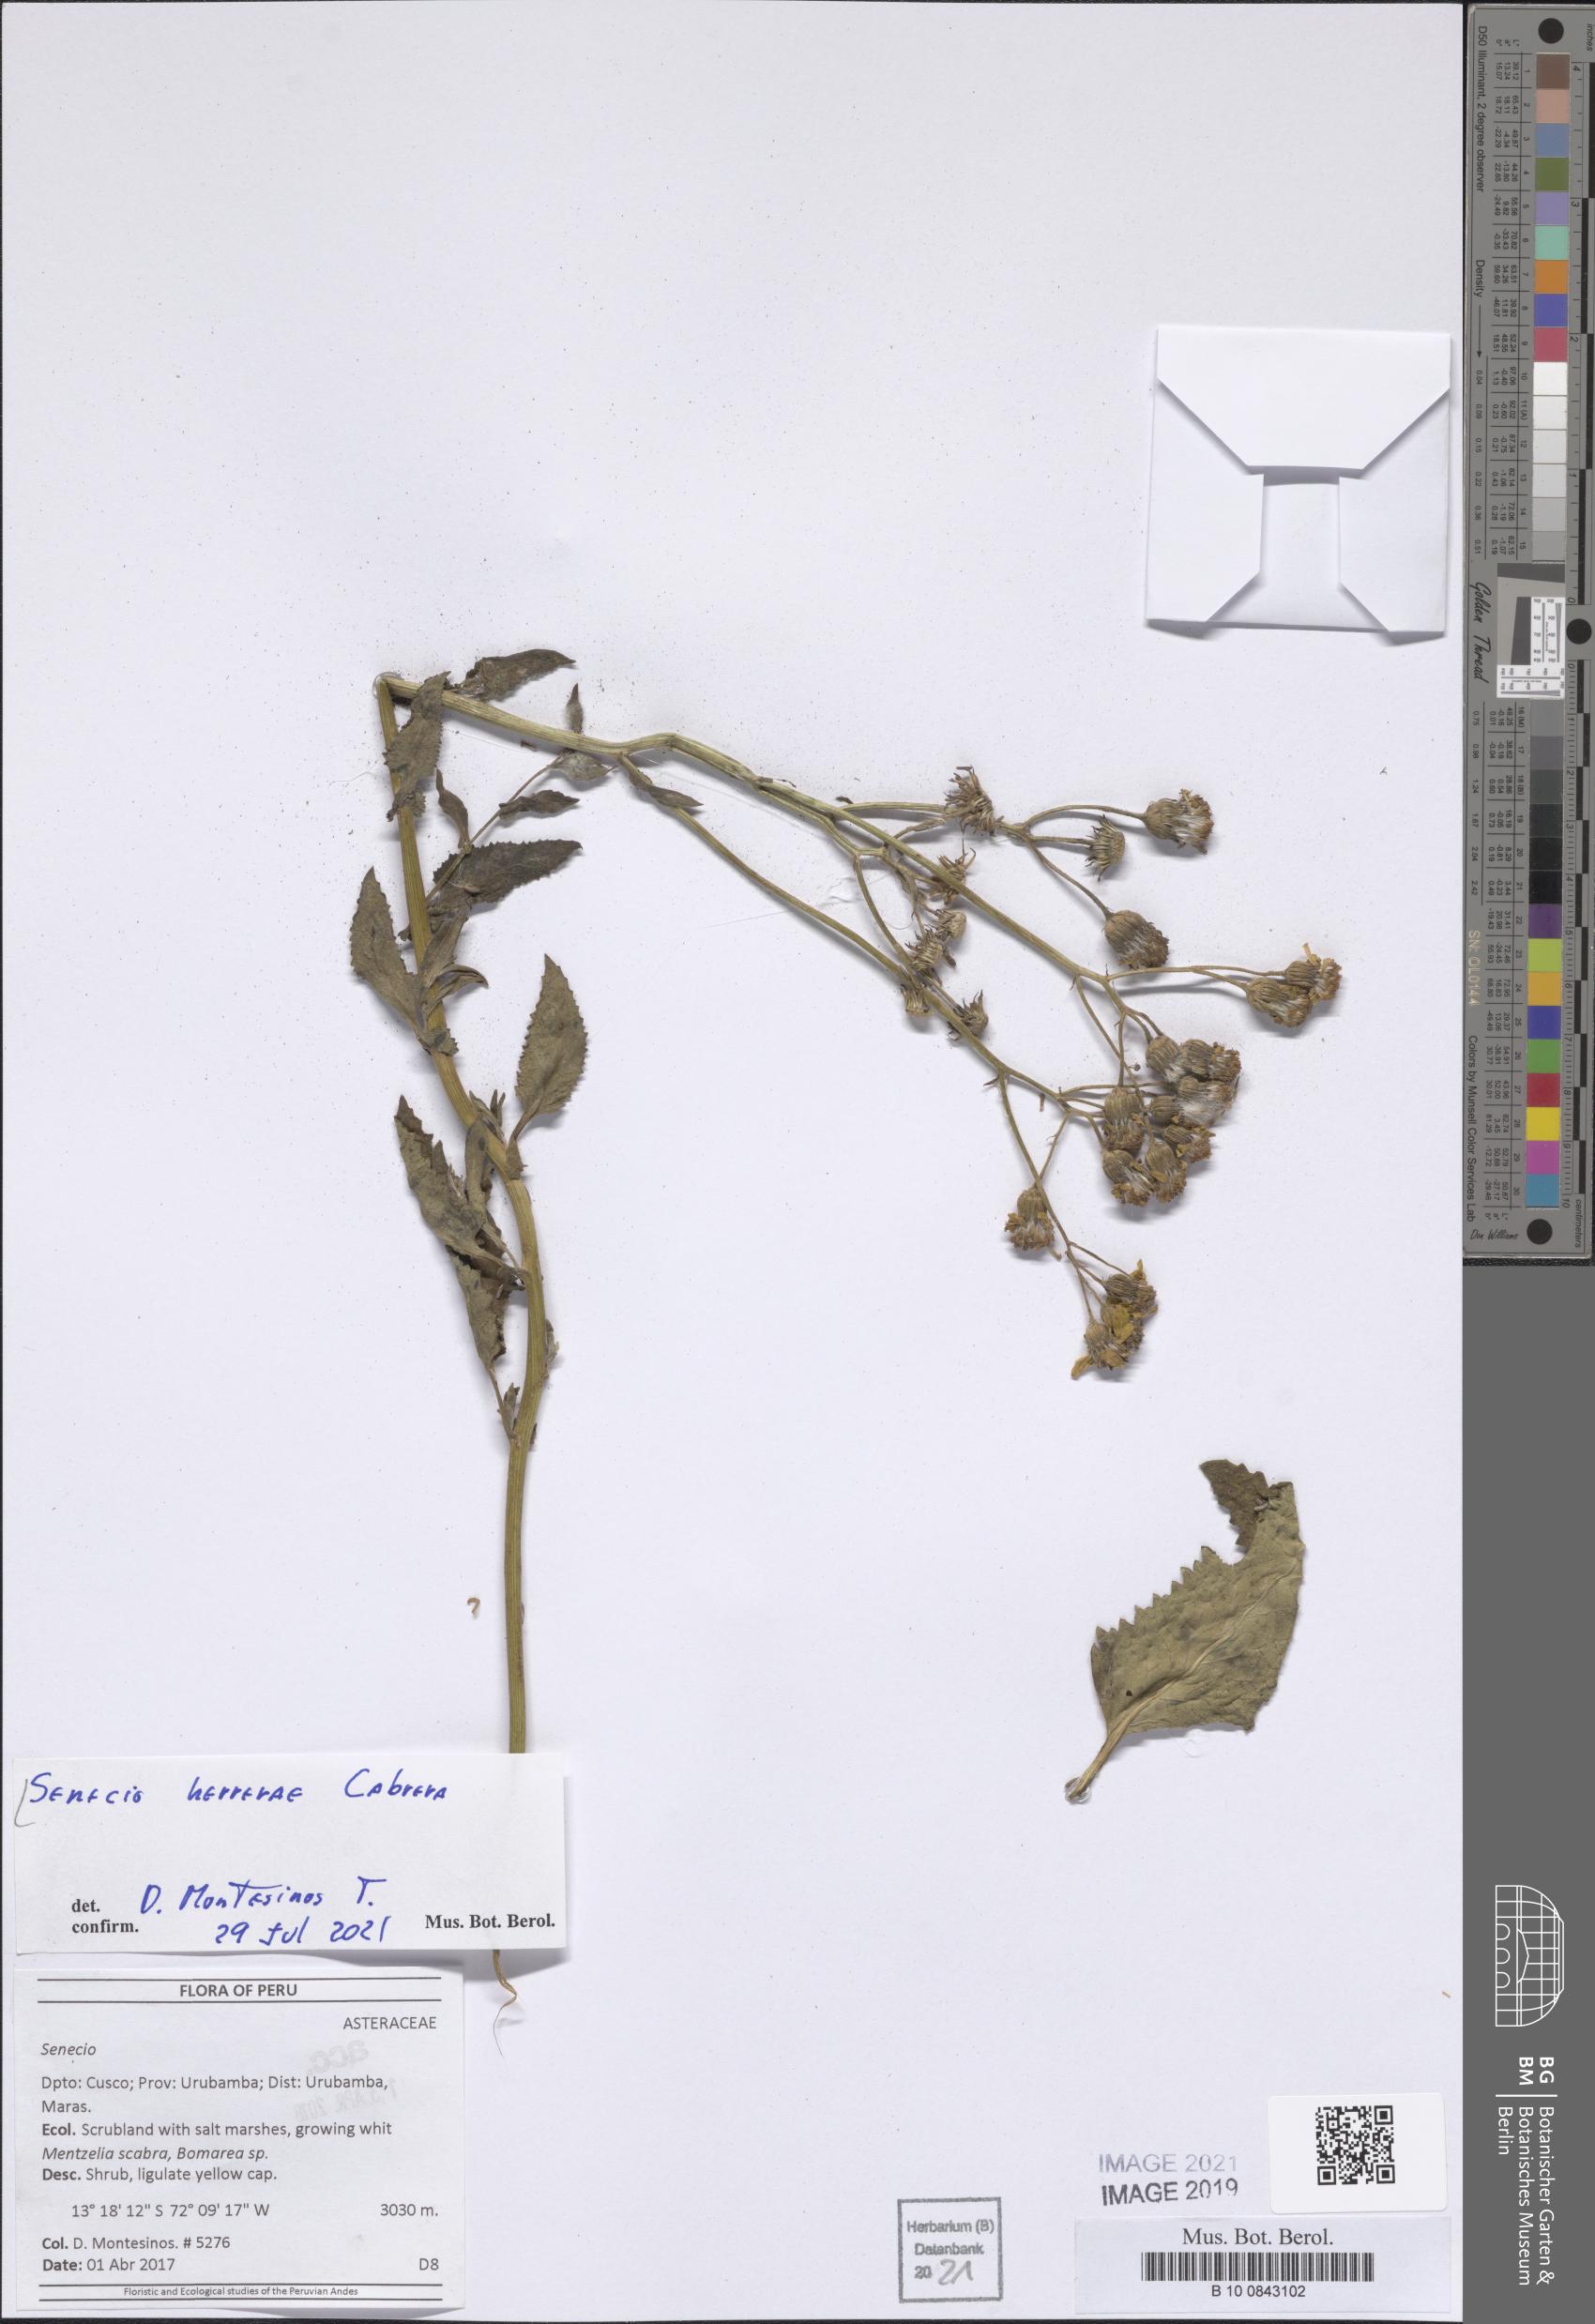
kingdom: Plantae
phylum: Tracheophyta
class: Magnoliopsida
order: Asterales
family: Asteraceae
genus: Senecio
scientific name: Senecio herrerae
